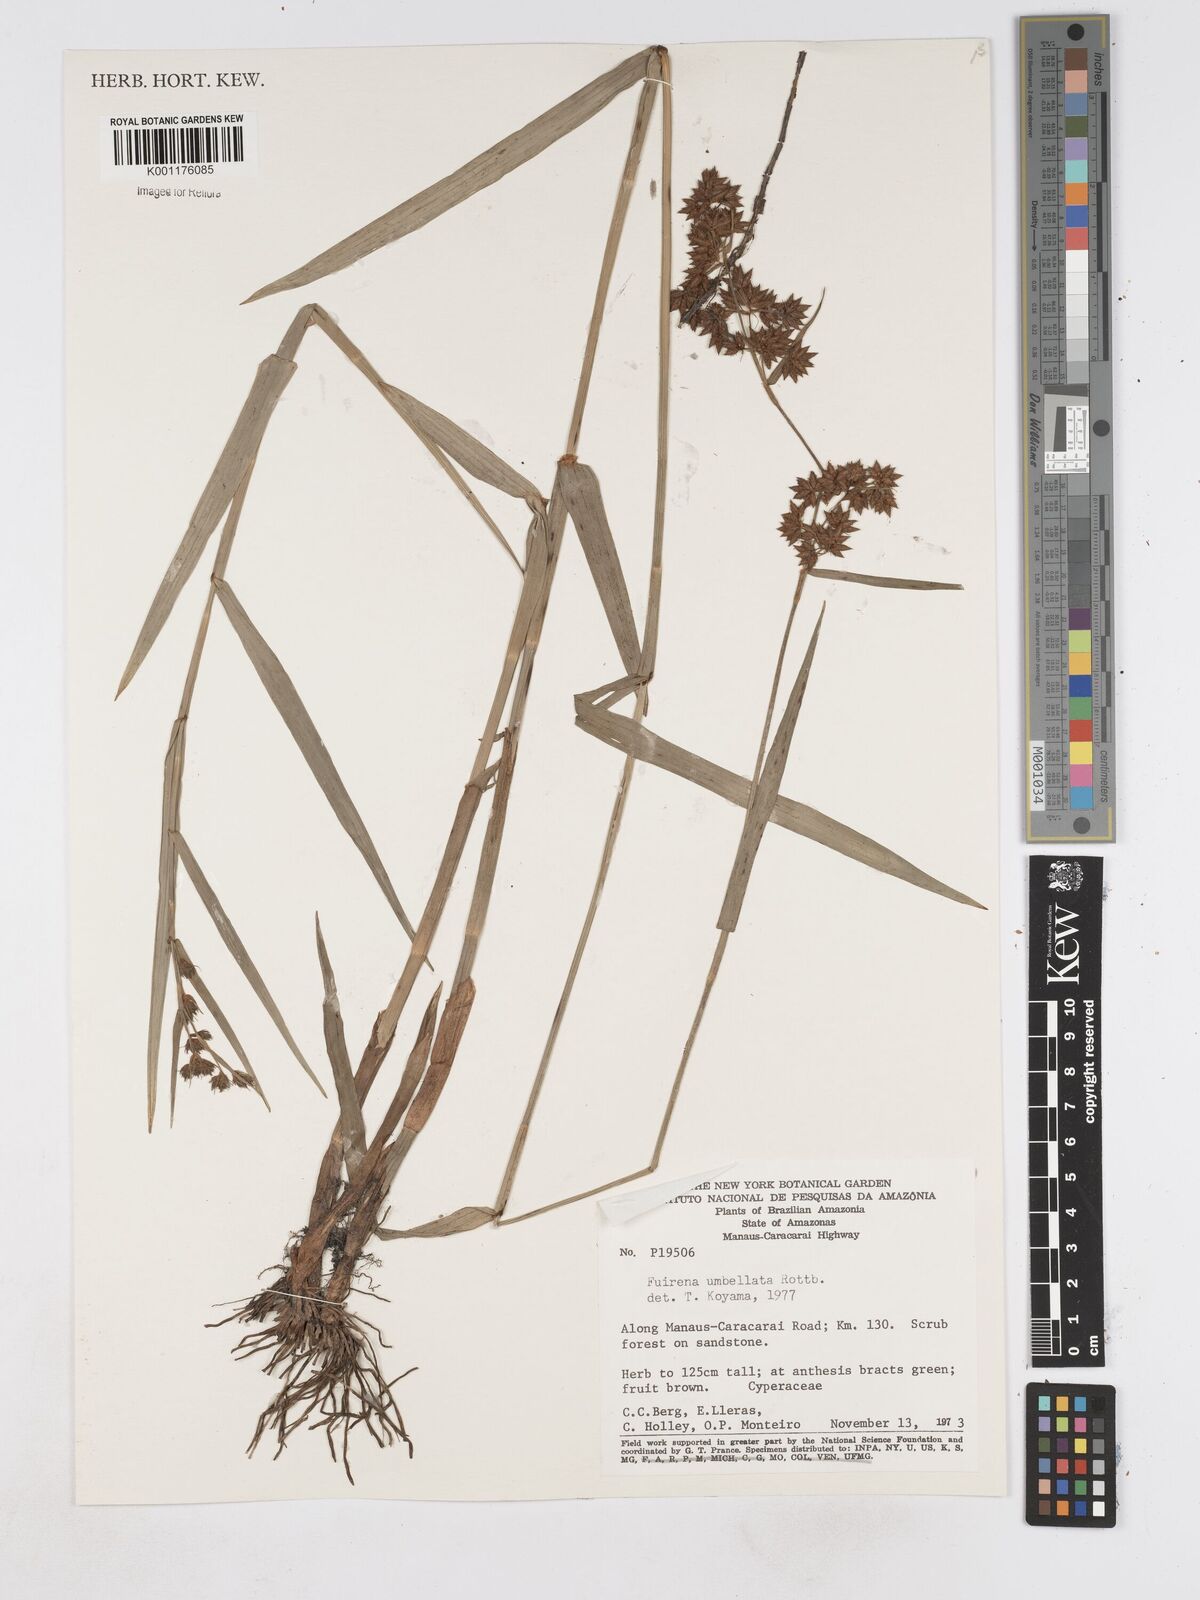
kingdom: Plantae
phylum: Tracheophyta
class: Liliopsida
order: Poales
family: Cyperaceae
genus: Fuirena
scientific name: Fuirena umbellata
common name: Yefen
